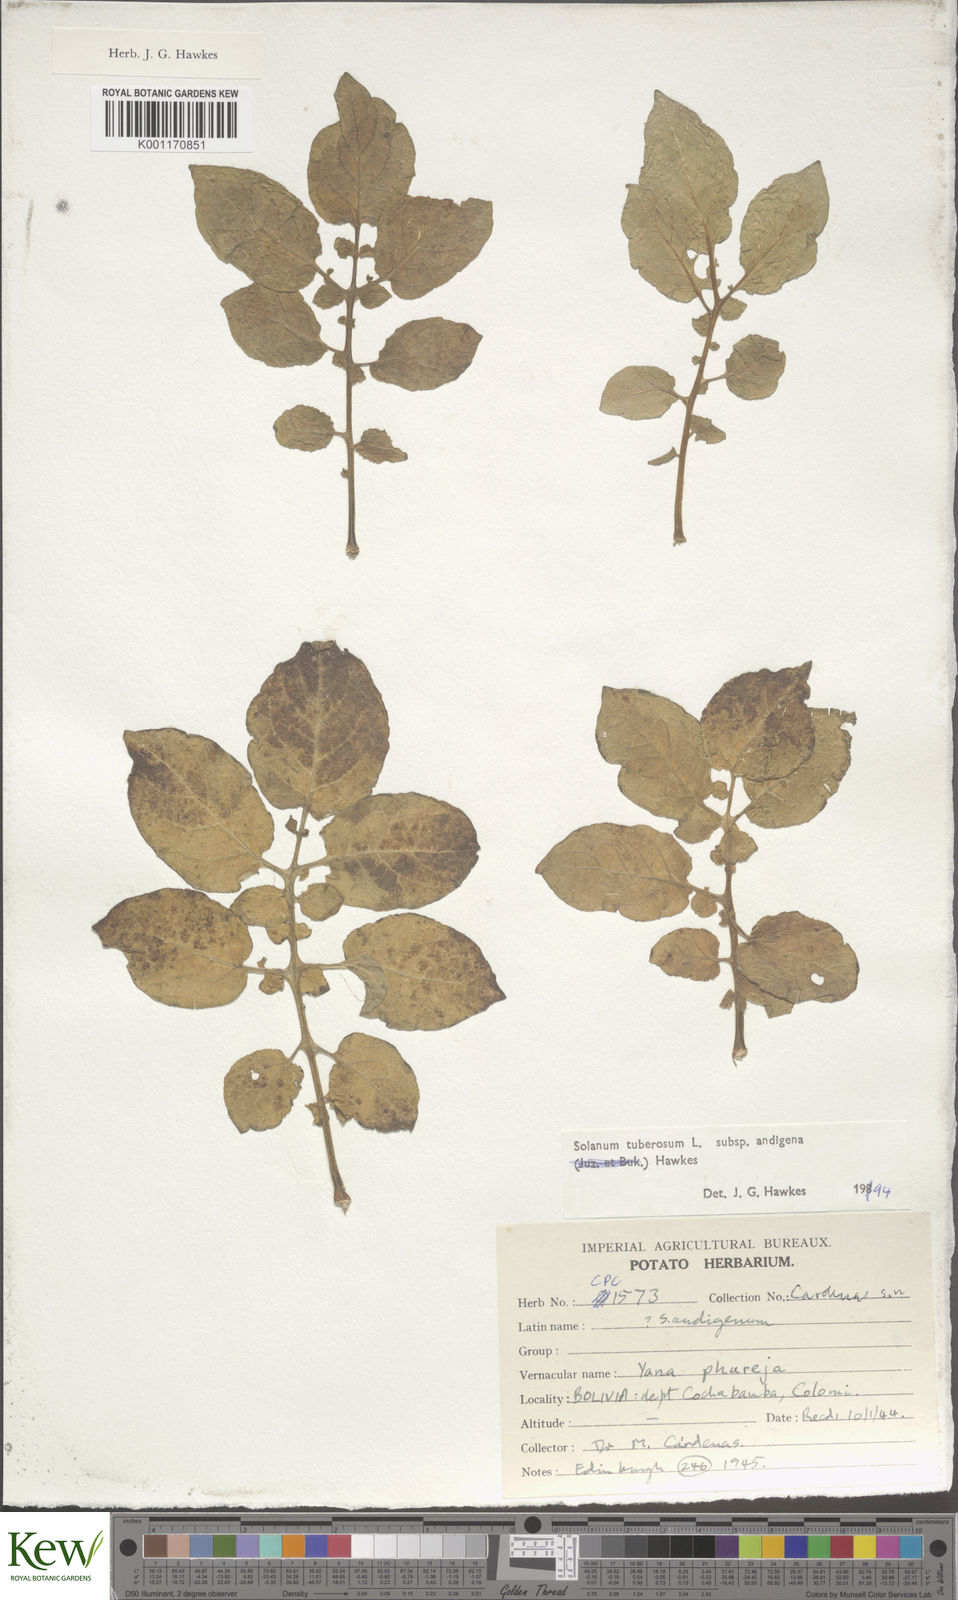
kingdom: Plantae
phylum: Tracheophyta
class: Magnoliopsida
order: Solanales
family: Solanaceae
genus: Solanum
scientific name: Solanum tuberosum
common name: Potato
